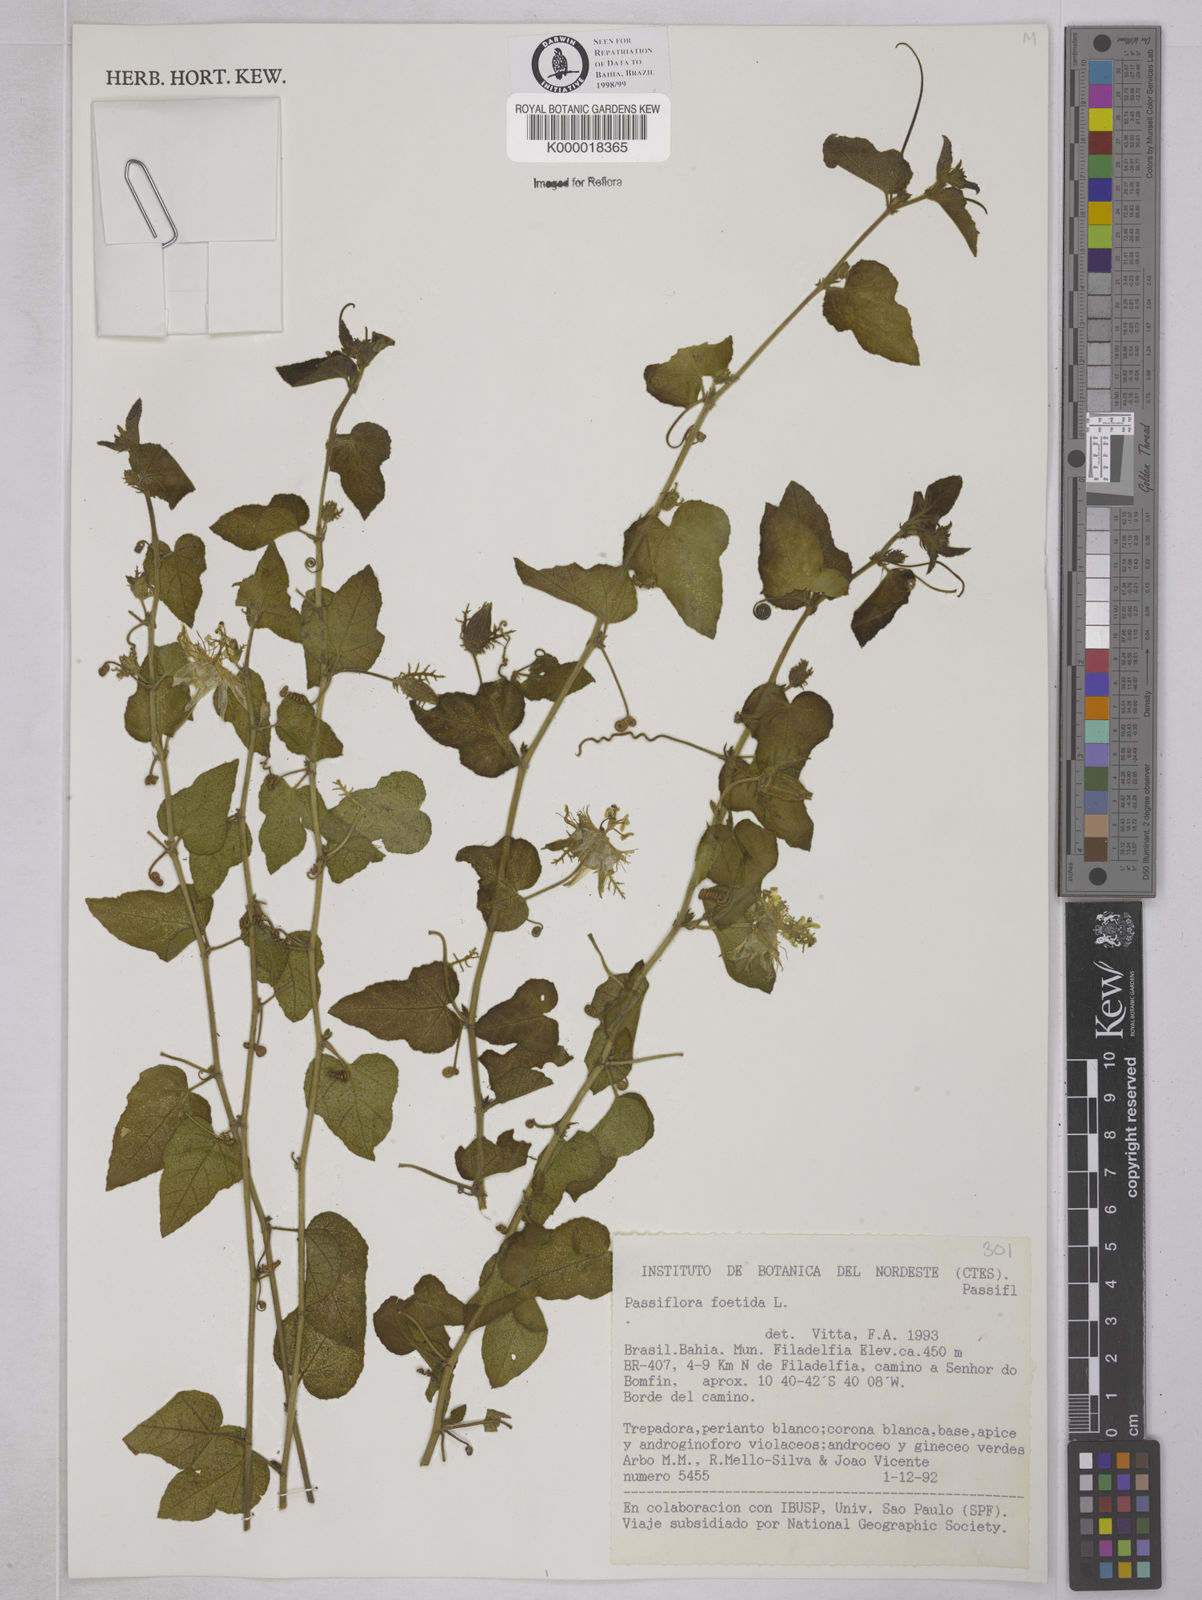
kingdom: Plantae
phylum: Tracheophyta
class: Magnoliopsida
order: Malpighiales
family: Passifloraceae
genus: Passiflora
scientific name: Passiflora foetida
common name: Fetid passionflower
